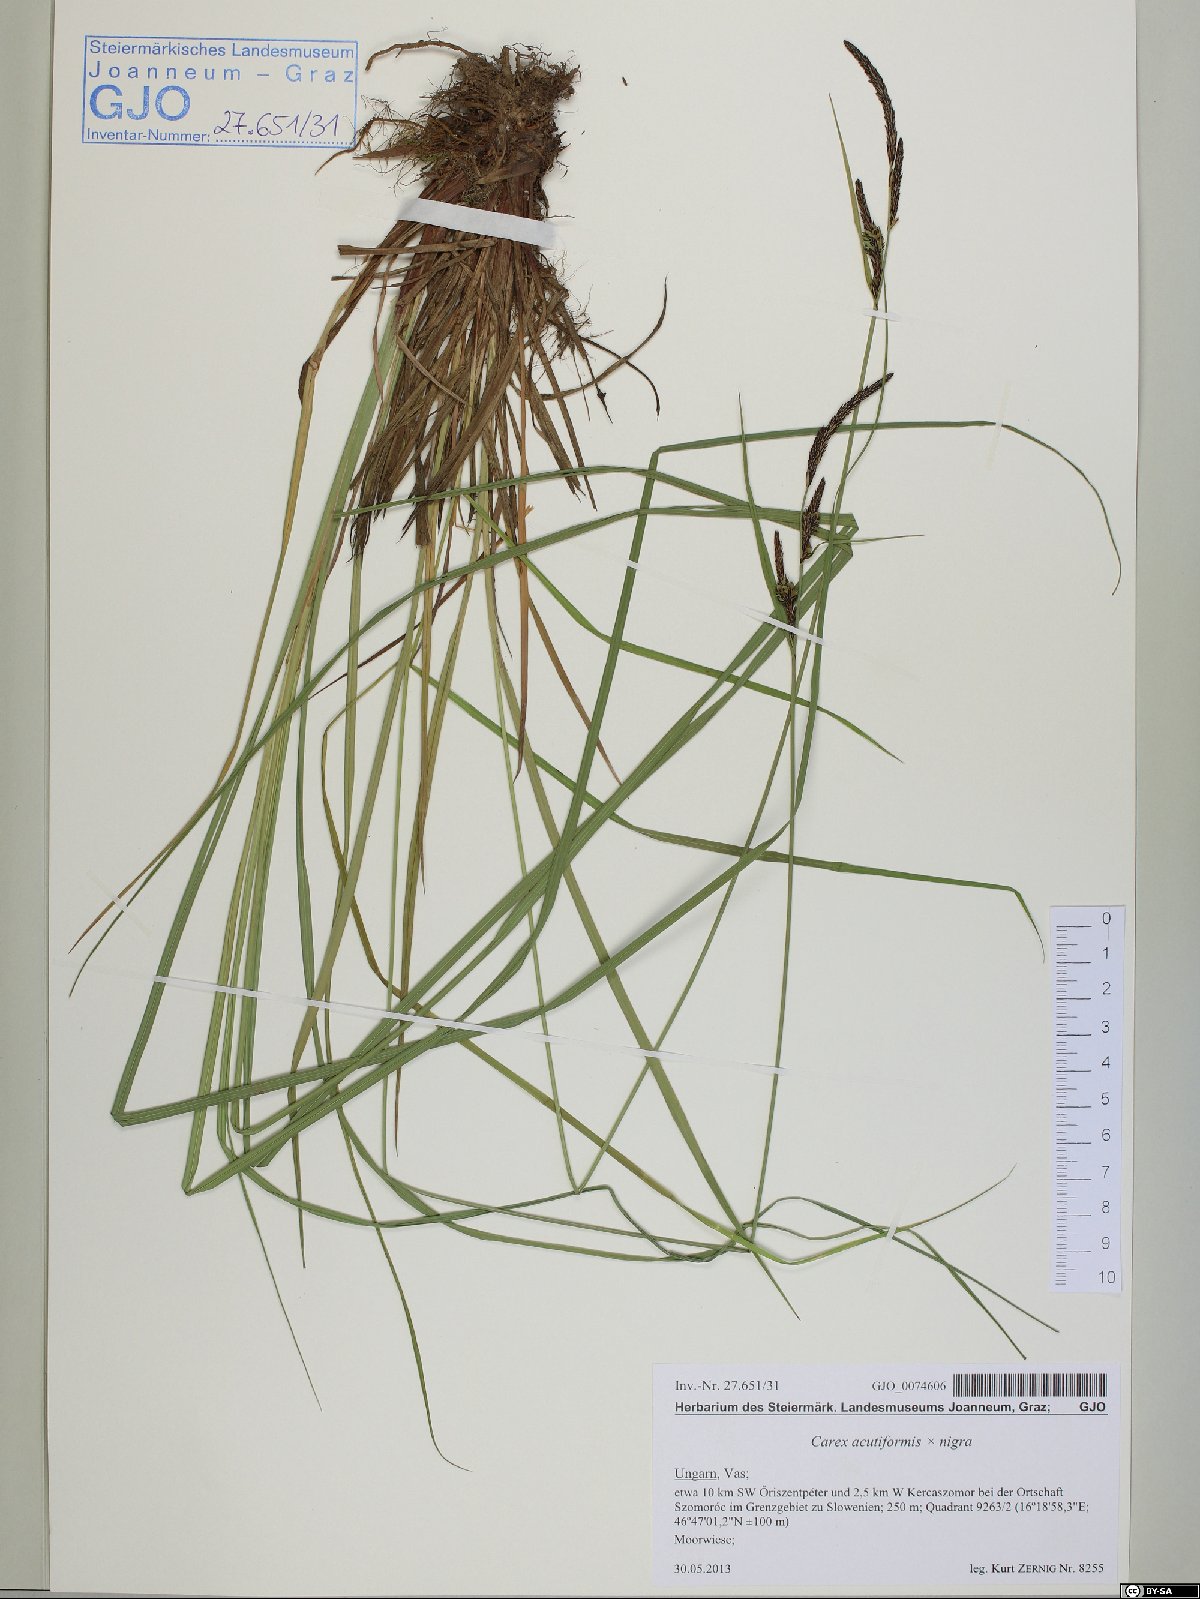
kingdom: Plantae
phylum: Tracheophyta
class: Liliopsida
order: Poales
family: Cyperaceae
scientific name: Cyperaceae
